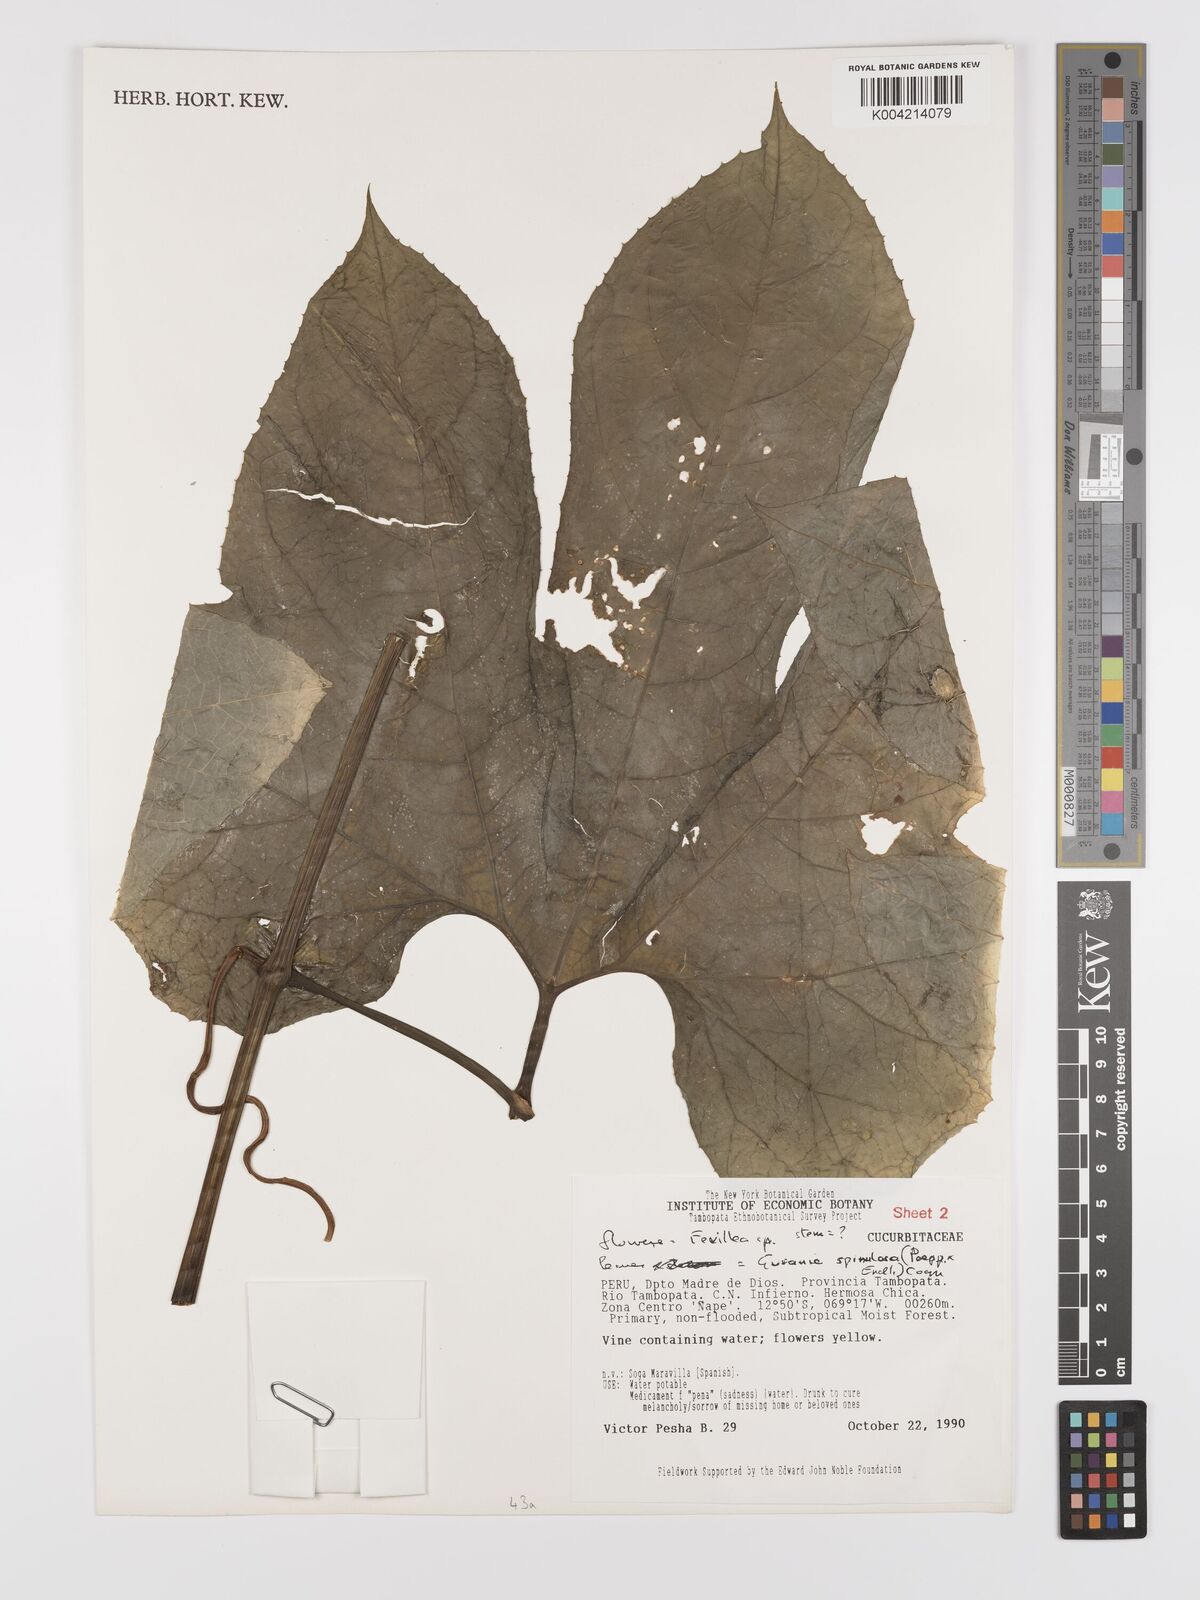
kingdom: Plantae
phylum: Tracheophyta
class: Magnoliopsida
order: Cucurbitales
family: Cucurbitaceae
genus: Gurania
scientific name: Gurania lobata
